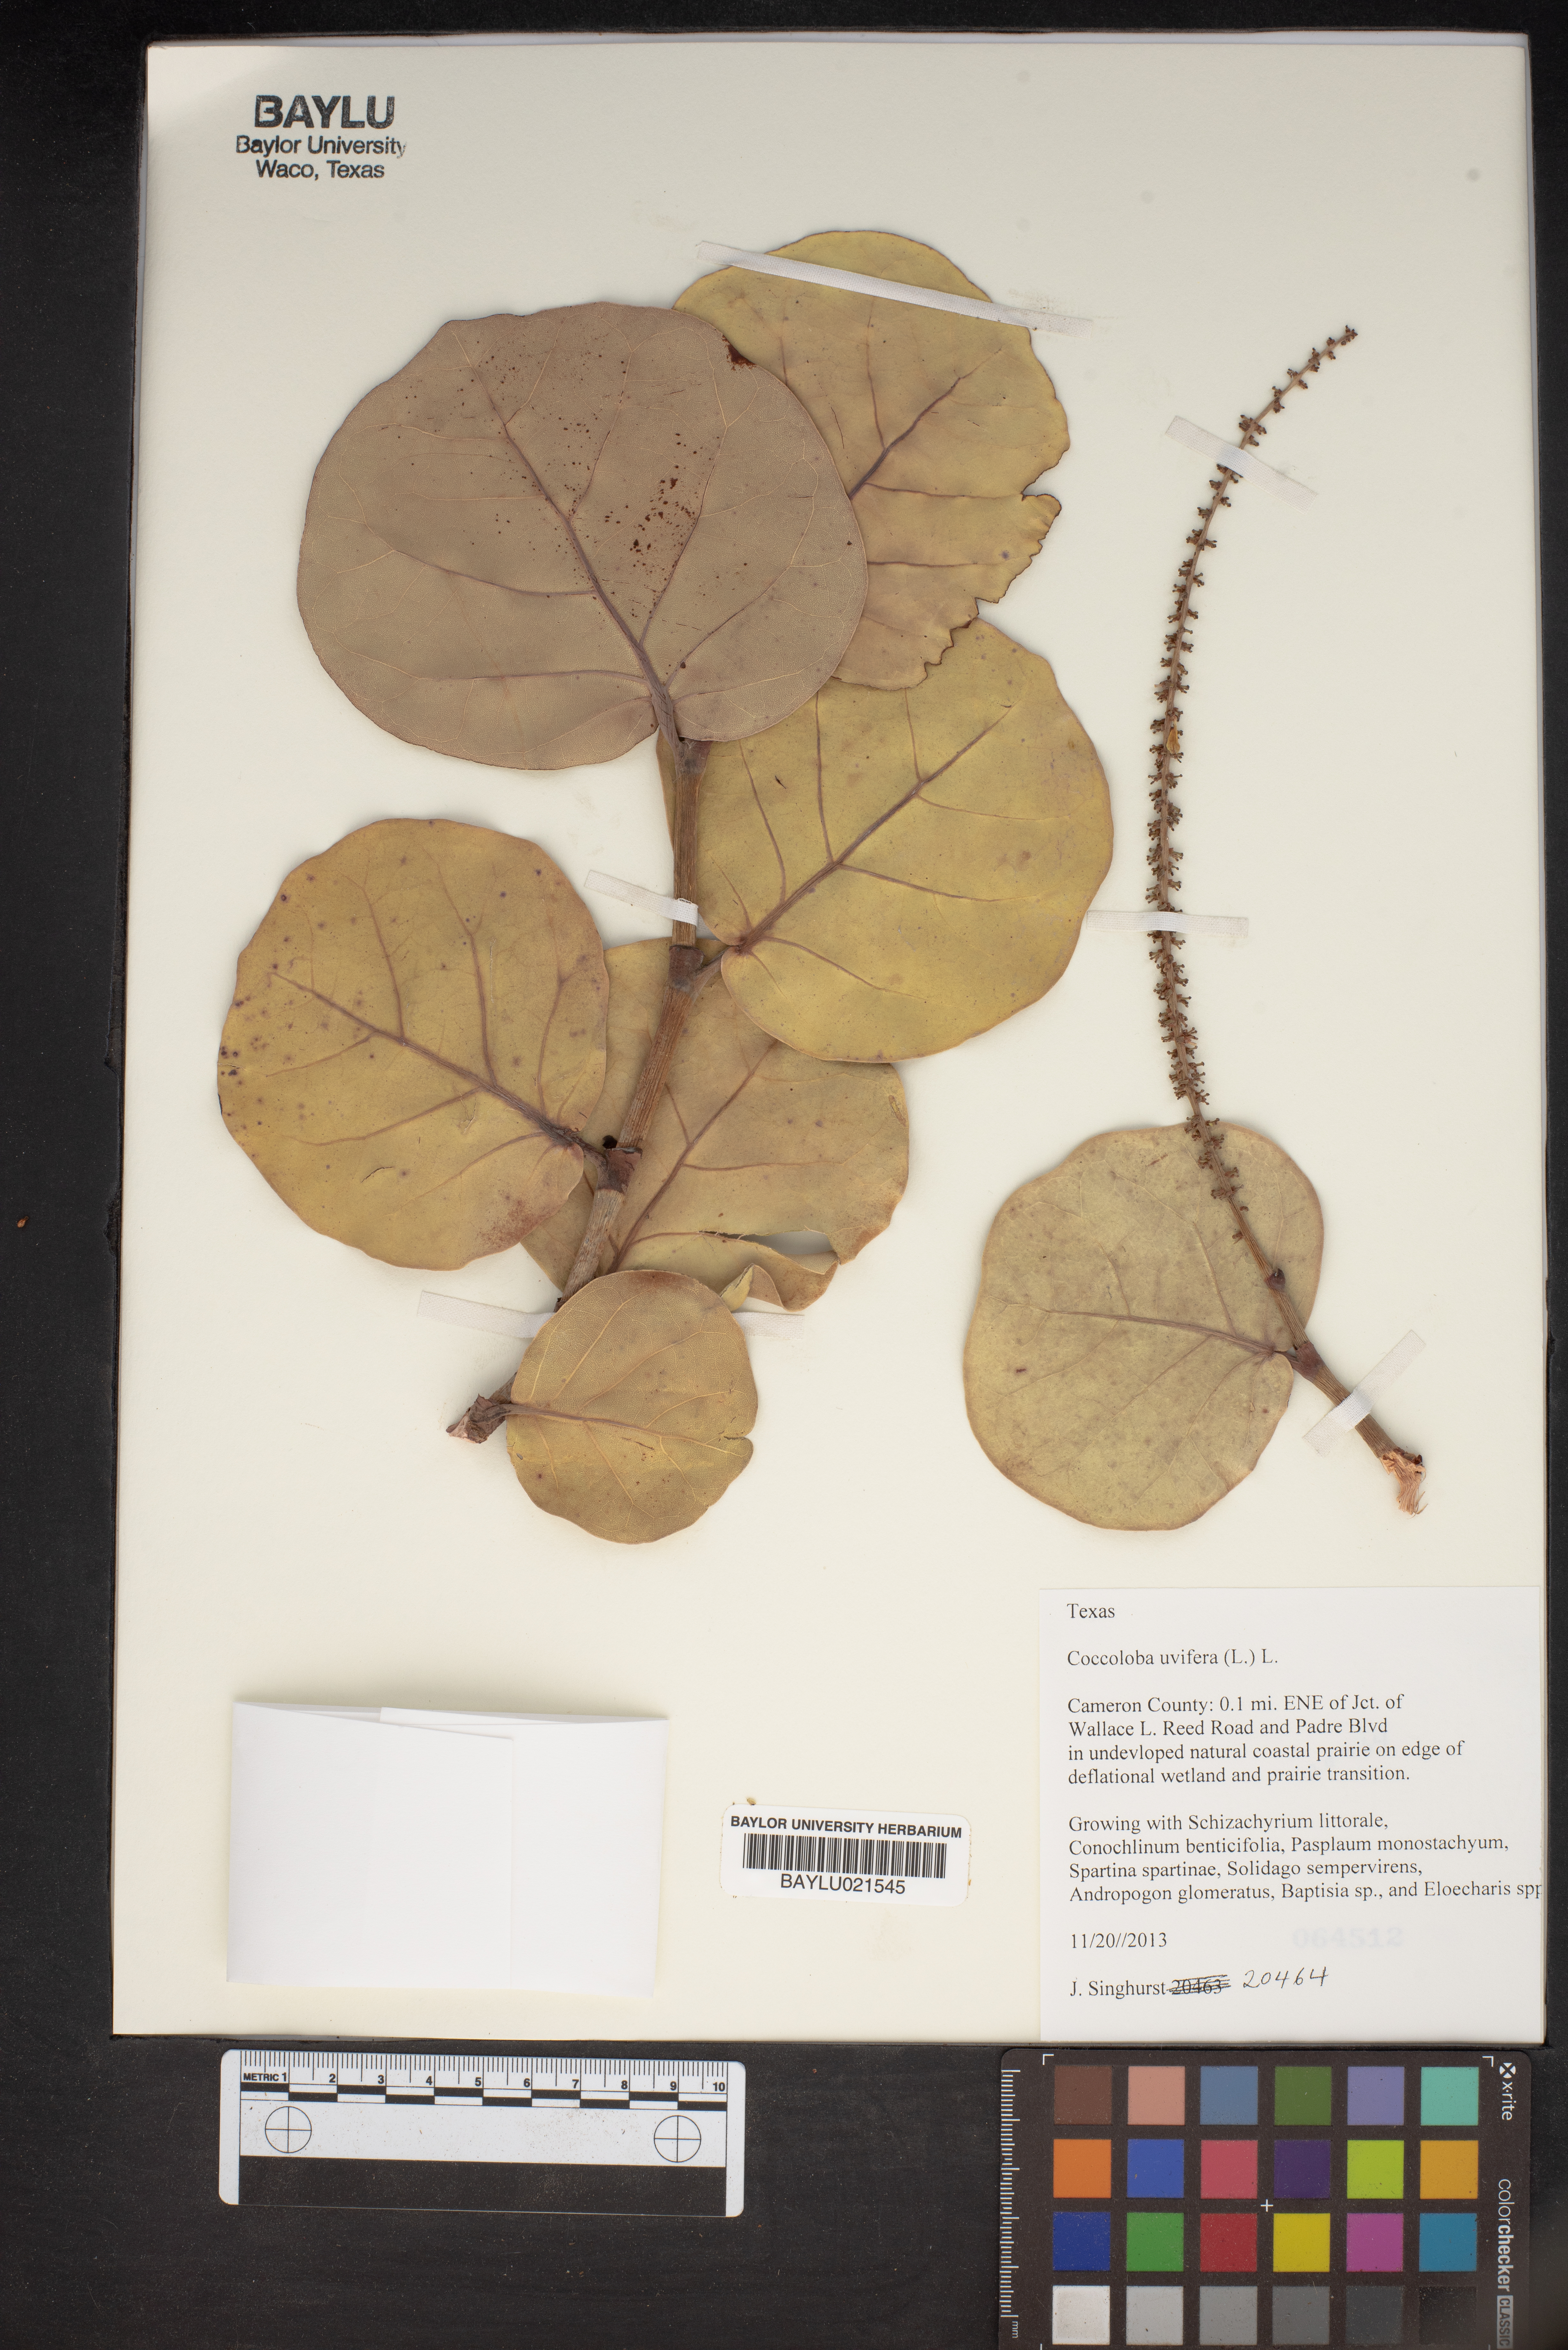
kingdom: Plantae
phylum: Tracheophyta
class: Magnoliopsida
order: Caryophyllales
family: Polygonaceae
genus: Coccoloba
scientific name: Coccoloba uvifera
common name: Seagrape
